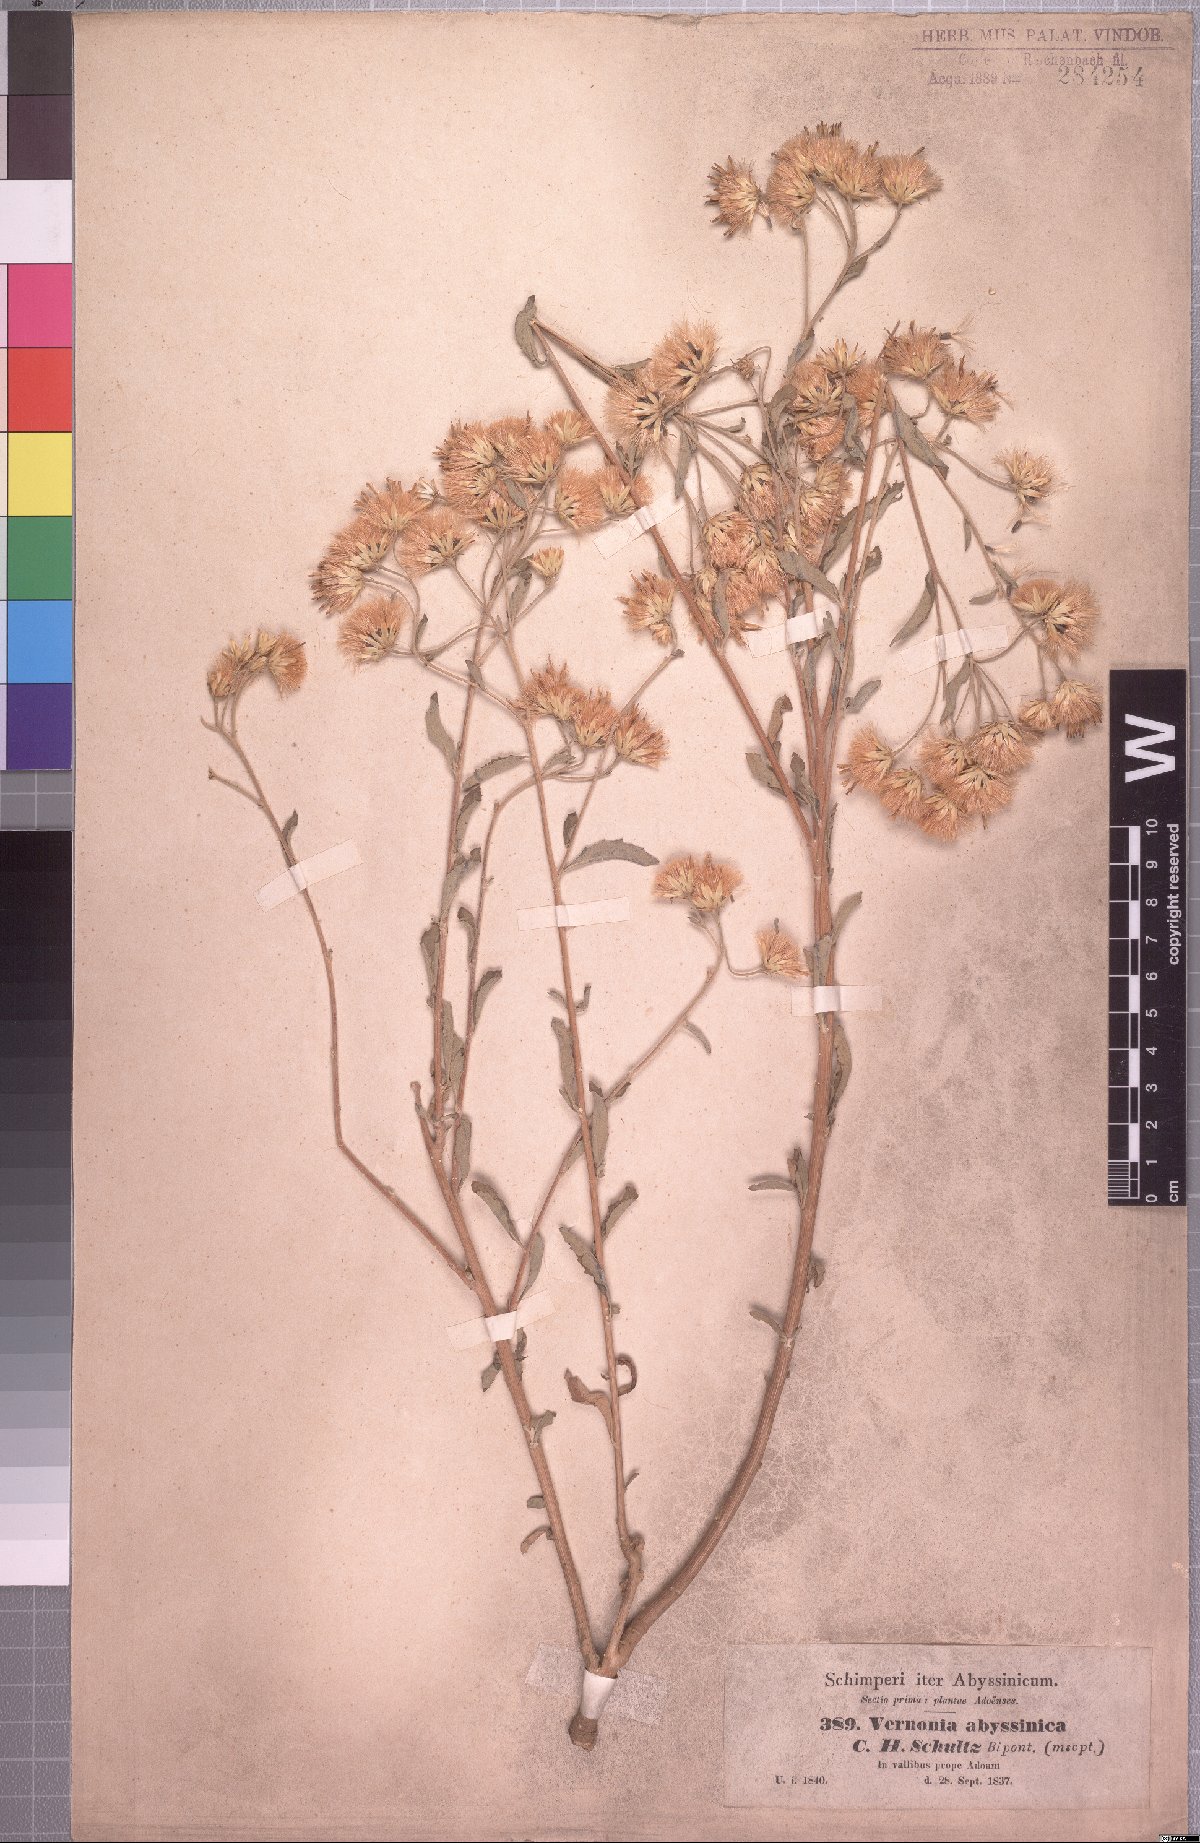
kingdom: Plantae
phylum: Tracheophyta
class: Magnoliopsida
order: Asterales
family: Asteraceae
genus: Baccharoides
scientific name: Baccharoides schimperi
